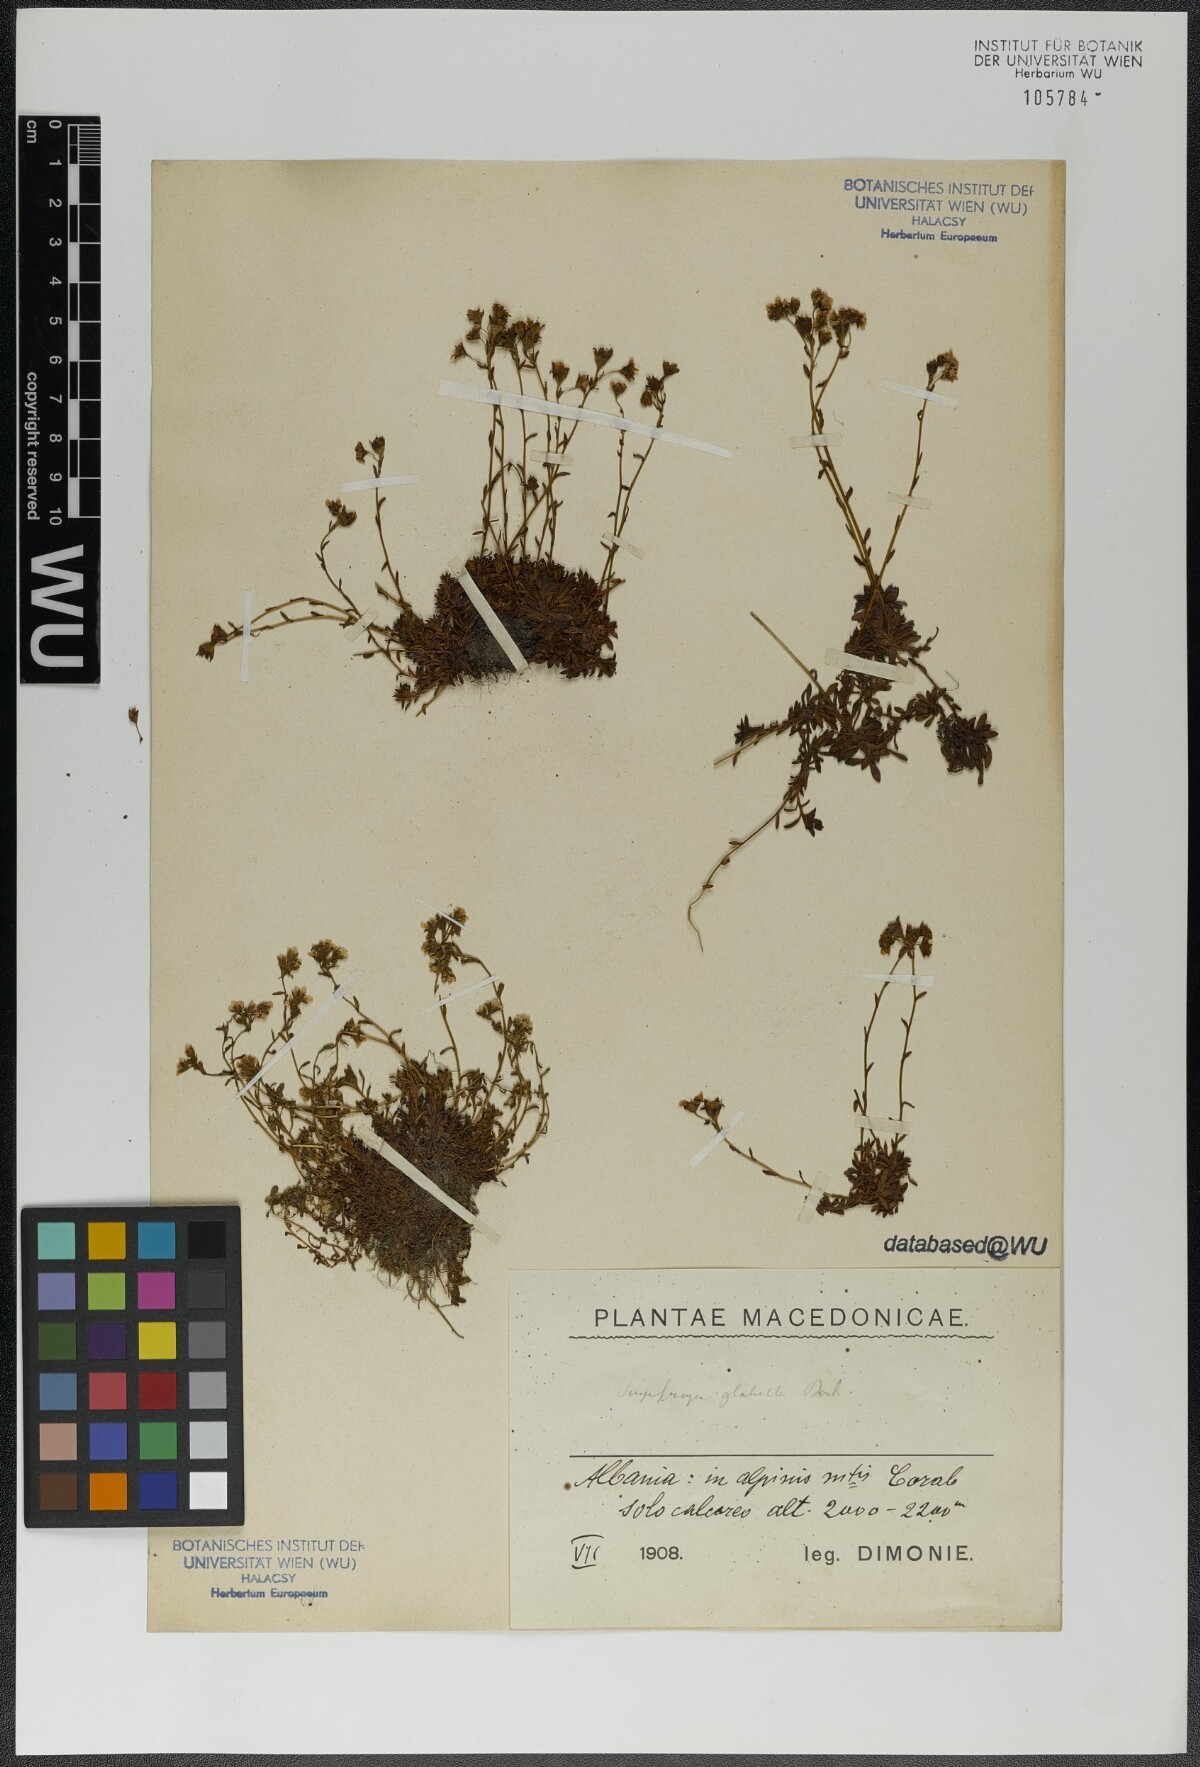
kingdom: Plantae
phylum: Tracheophyta
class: Magnoliopsida
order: Saxifragales
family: Saxifragaceae
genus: Saxifraga
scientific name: Saxifraga glabella
